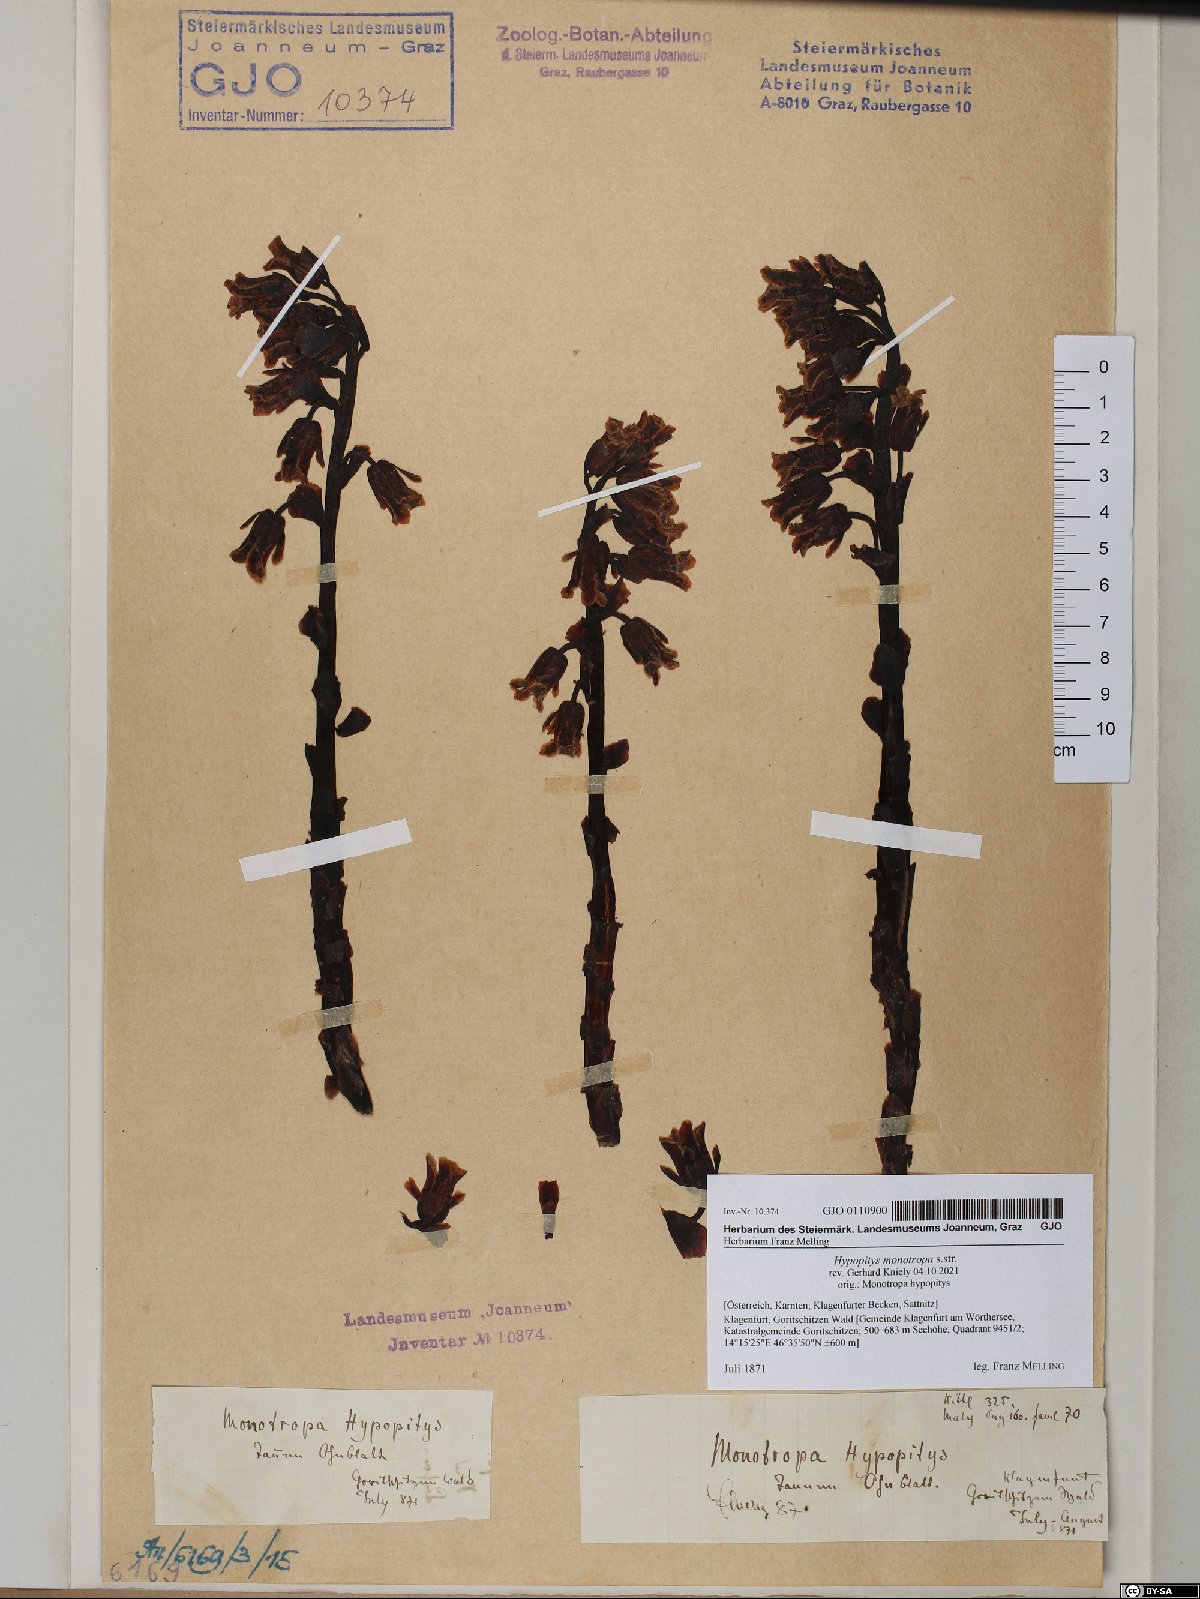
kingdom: Plantae
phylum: Tracheophyta
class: Magnoliopsida
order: Ericales
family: Ericaceae
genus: Hypopitys
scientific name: Hypopitys monotropa
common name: Yellow bird's-nest
